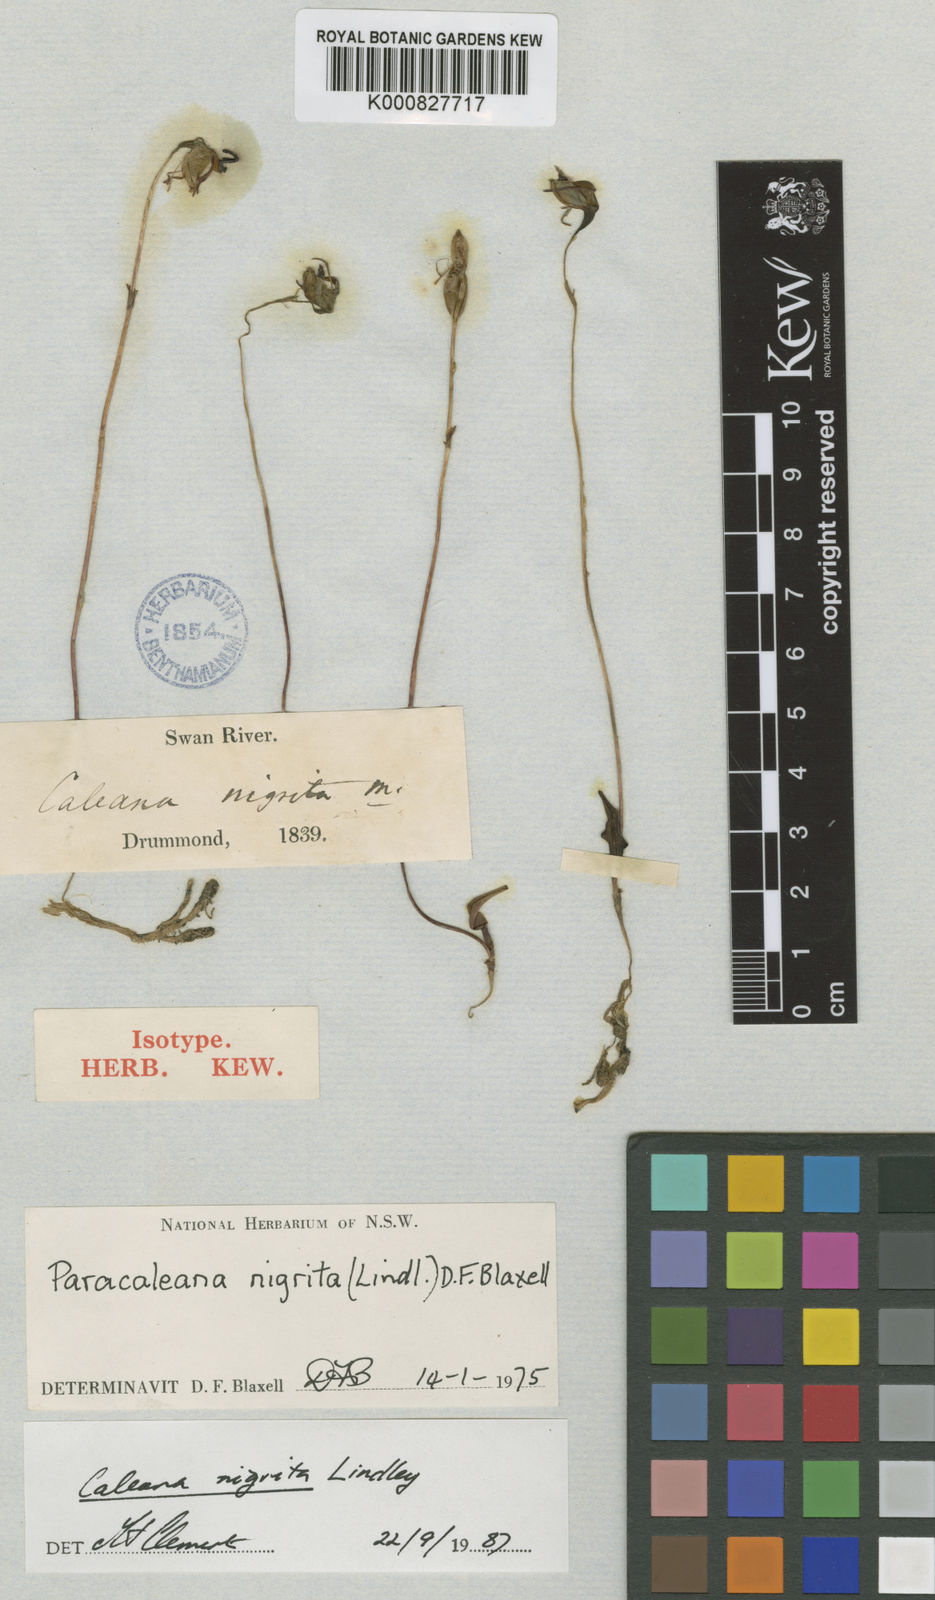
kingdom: Plantae
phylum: Tracheophyta
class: Liliopsida
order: Asparagales
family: Orchidaceae
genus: Caleana
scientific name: Caleana nigrita
